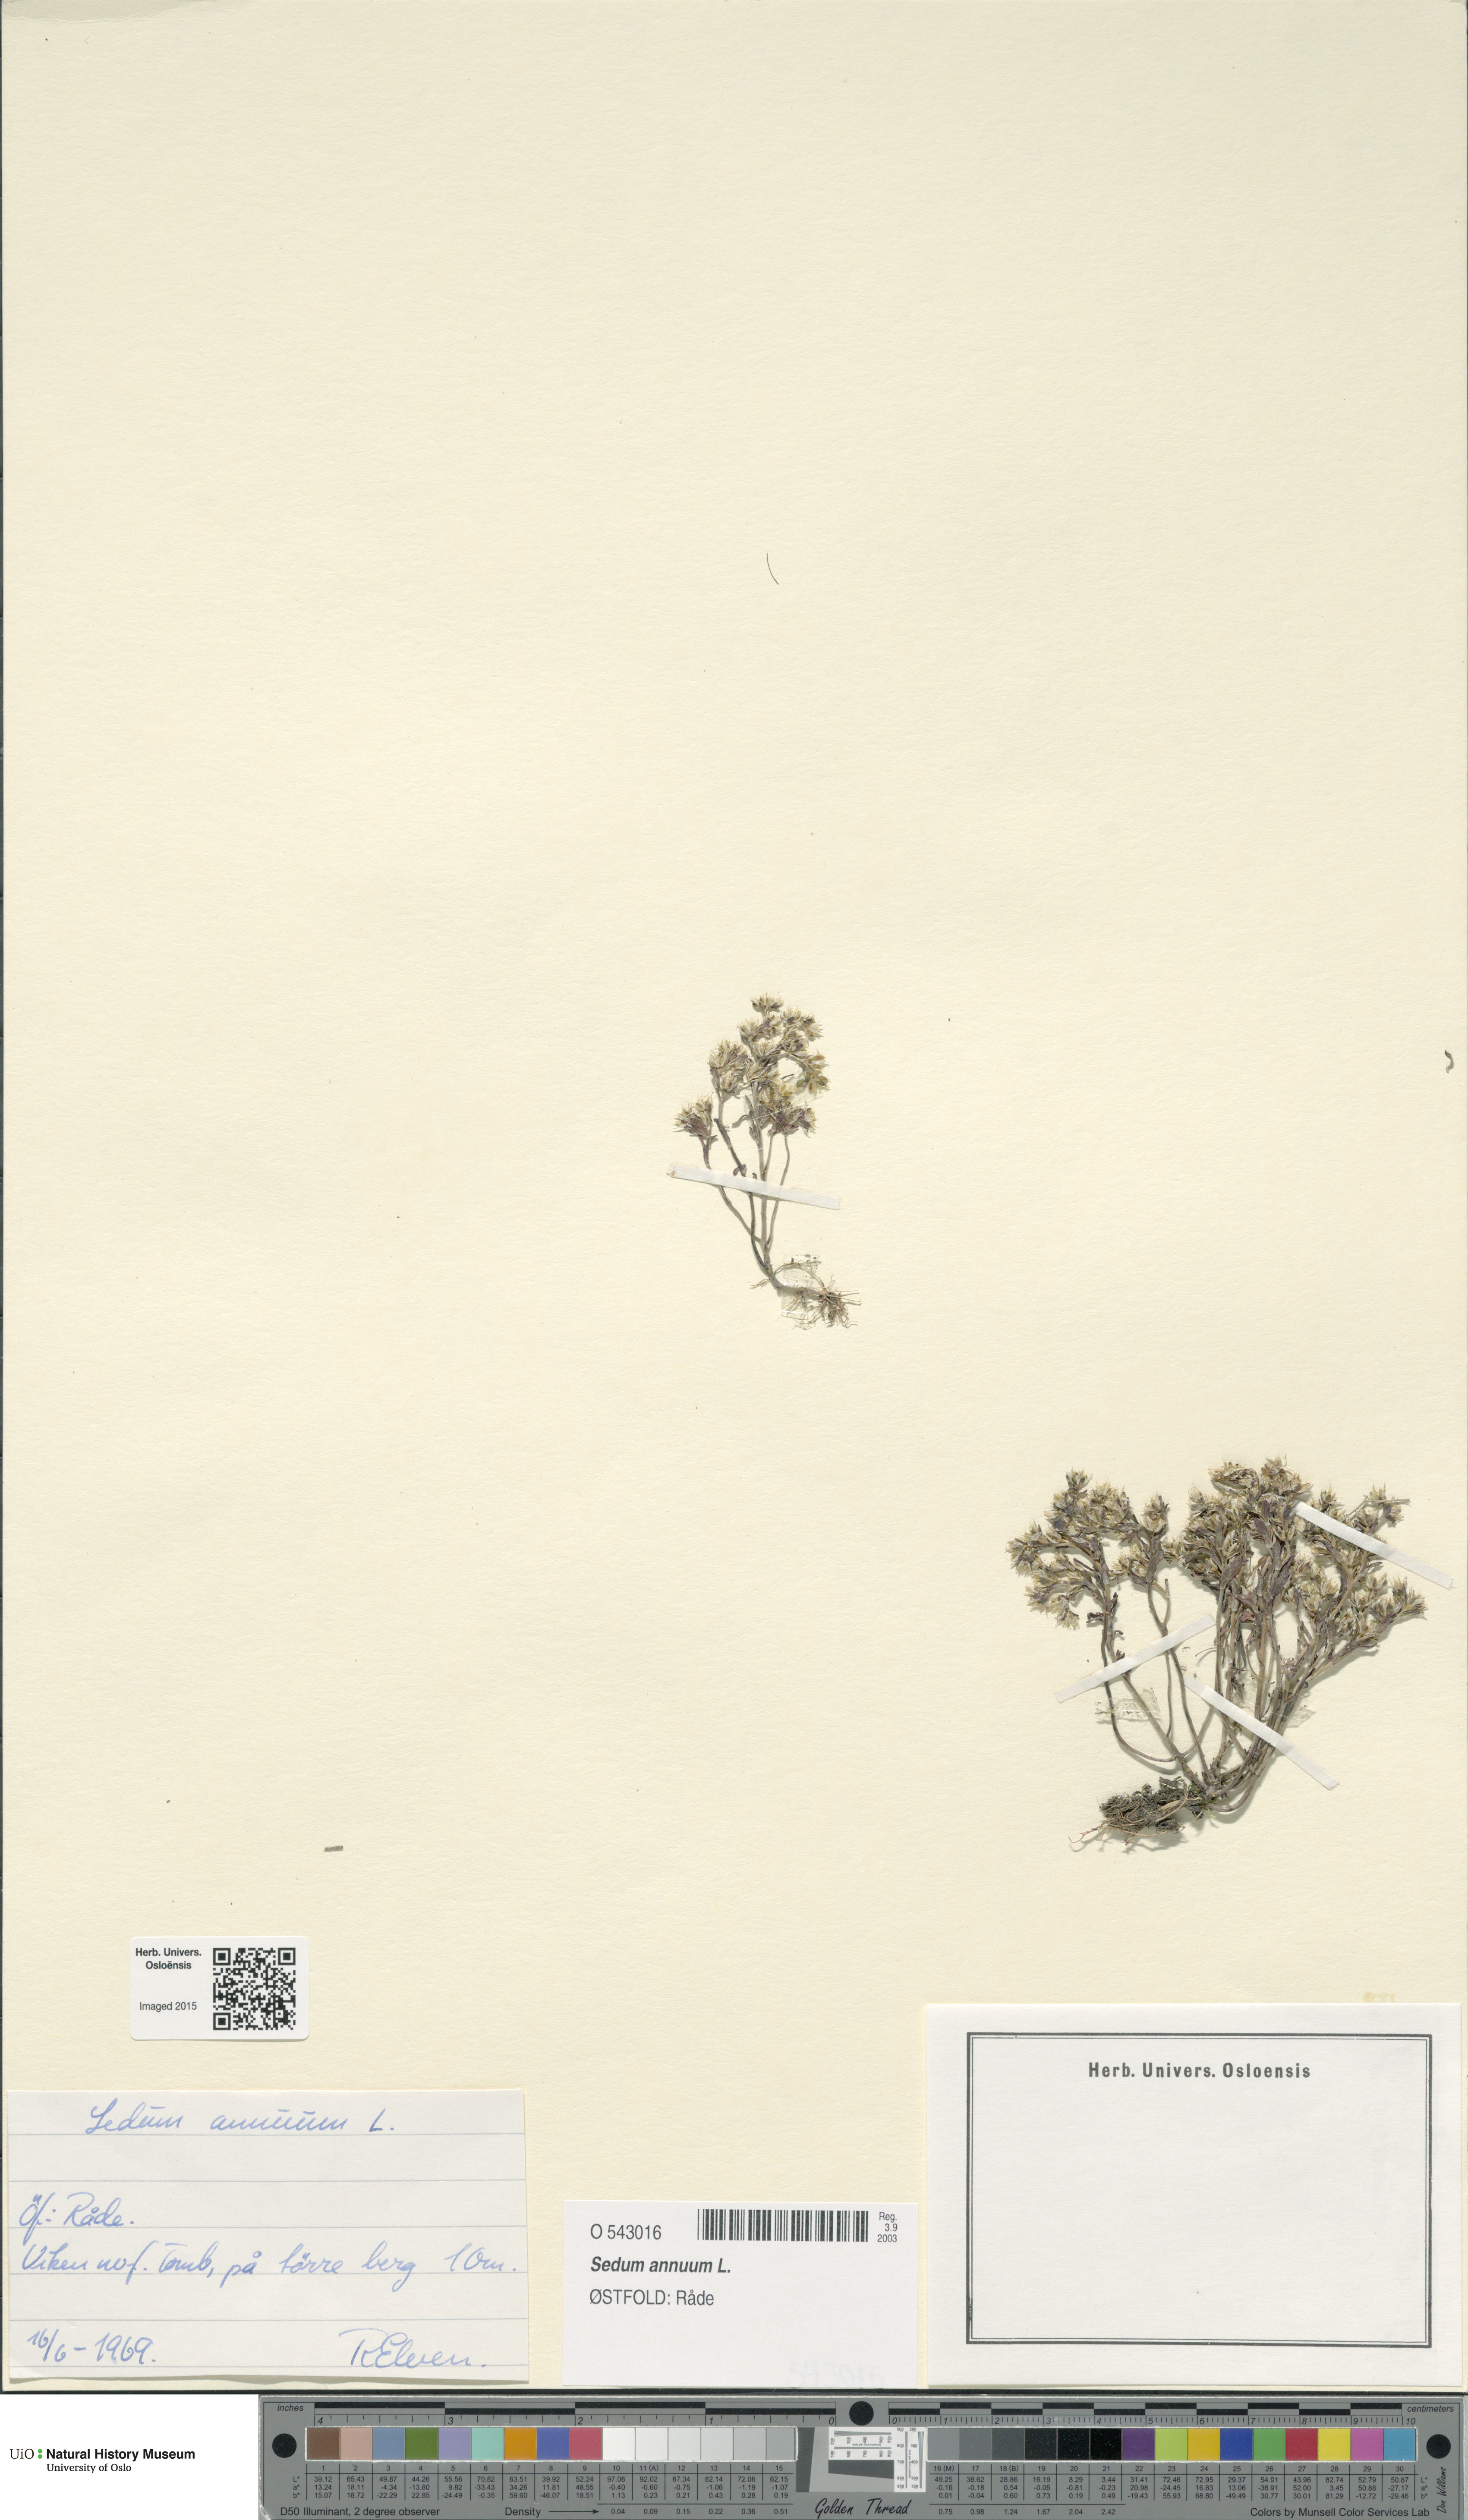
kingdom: Plantae
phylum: Tracheophyta
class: Magnoliopsida
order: Saxifragales
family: Crassulaceae
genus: Sedum
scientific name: Sedum annuum
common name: Annual stonecrop
